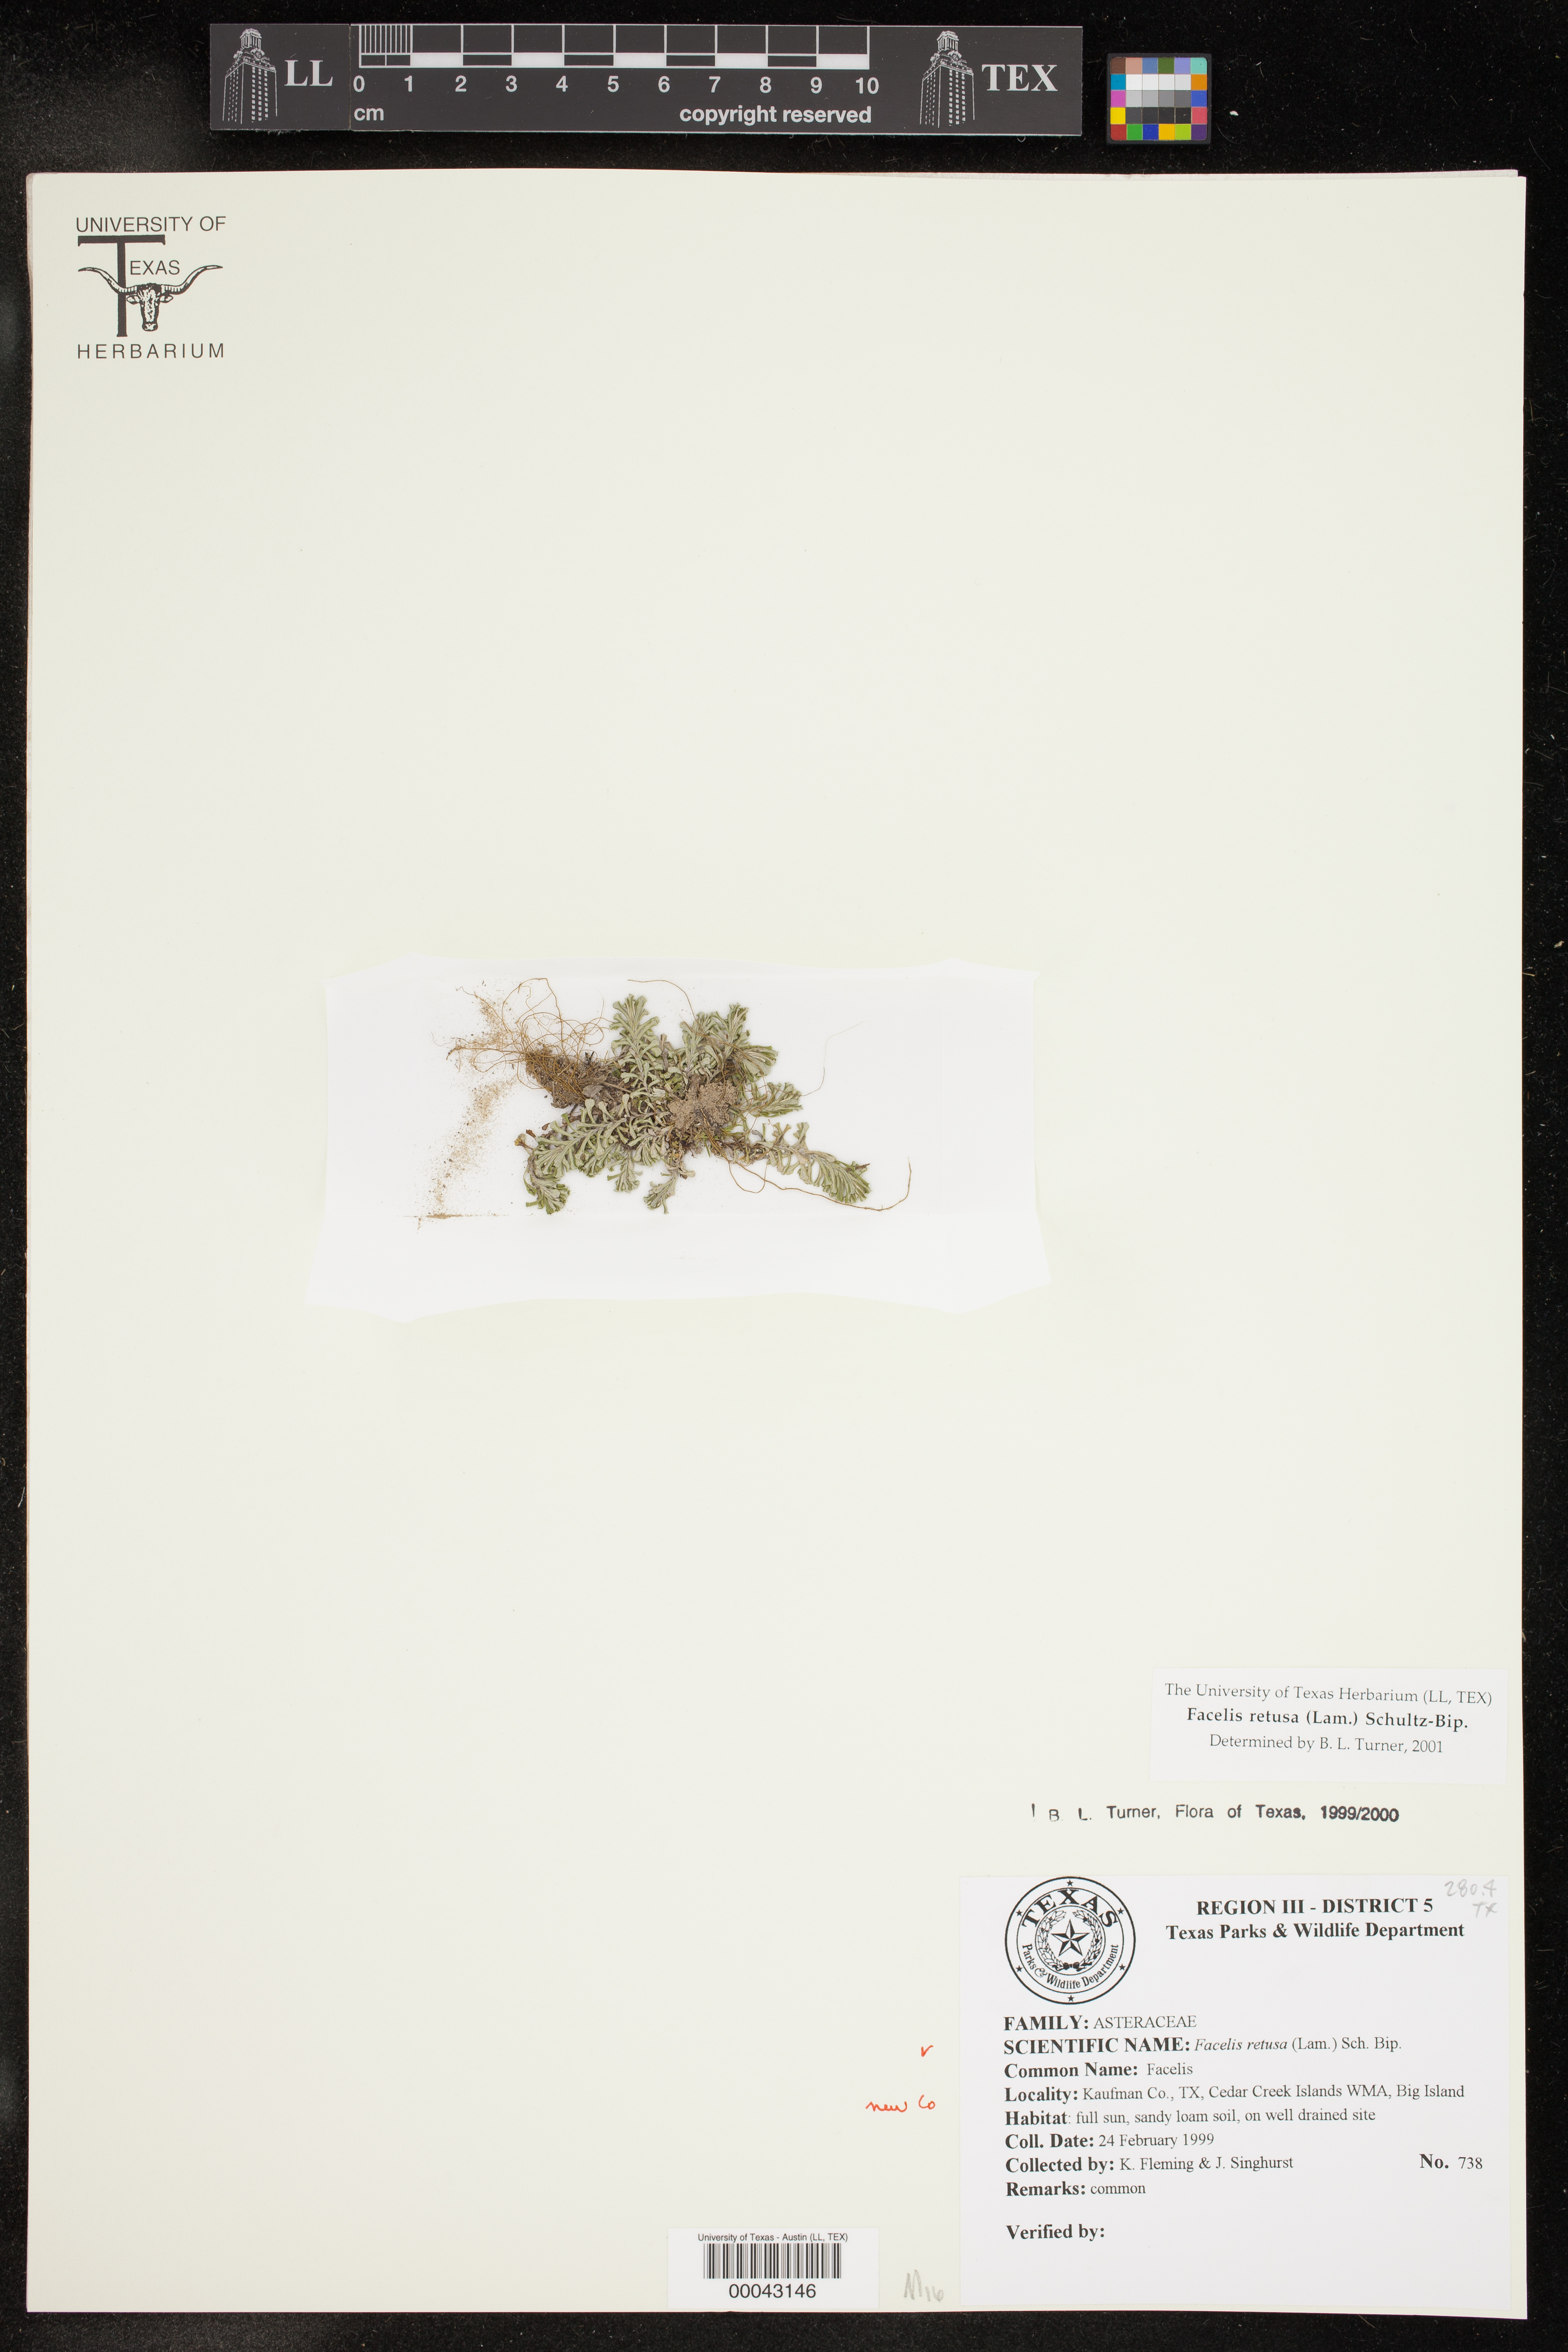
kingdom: Plantae
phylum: Tracheophyta
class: Magnoliopsida
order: Asterales
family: Asteraceae
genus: Facelis
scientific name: Facelis retusa
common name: Annual trampweed
